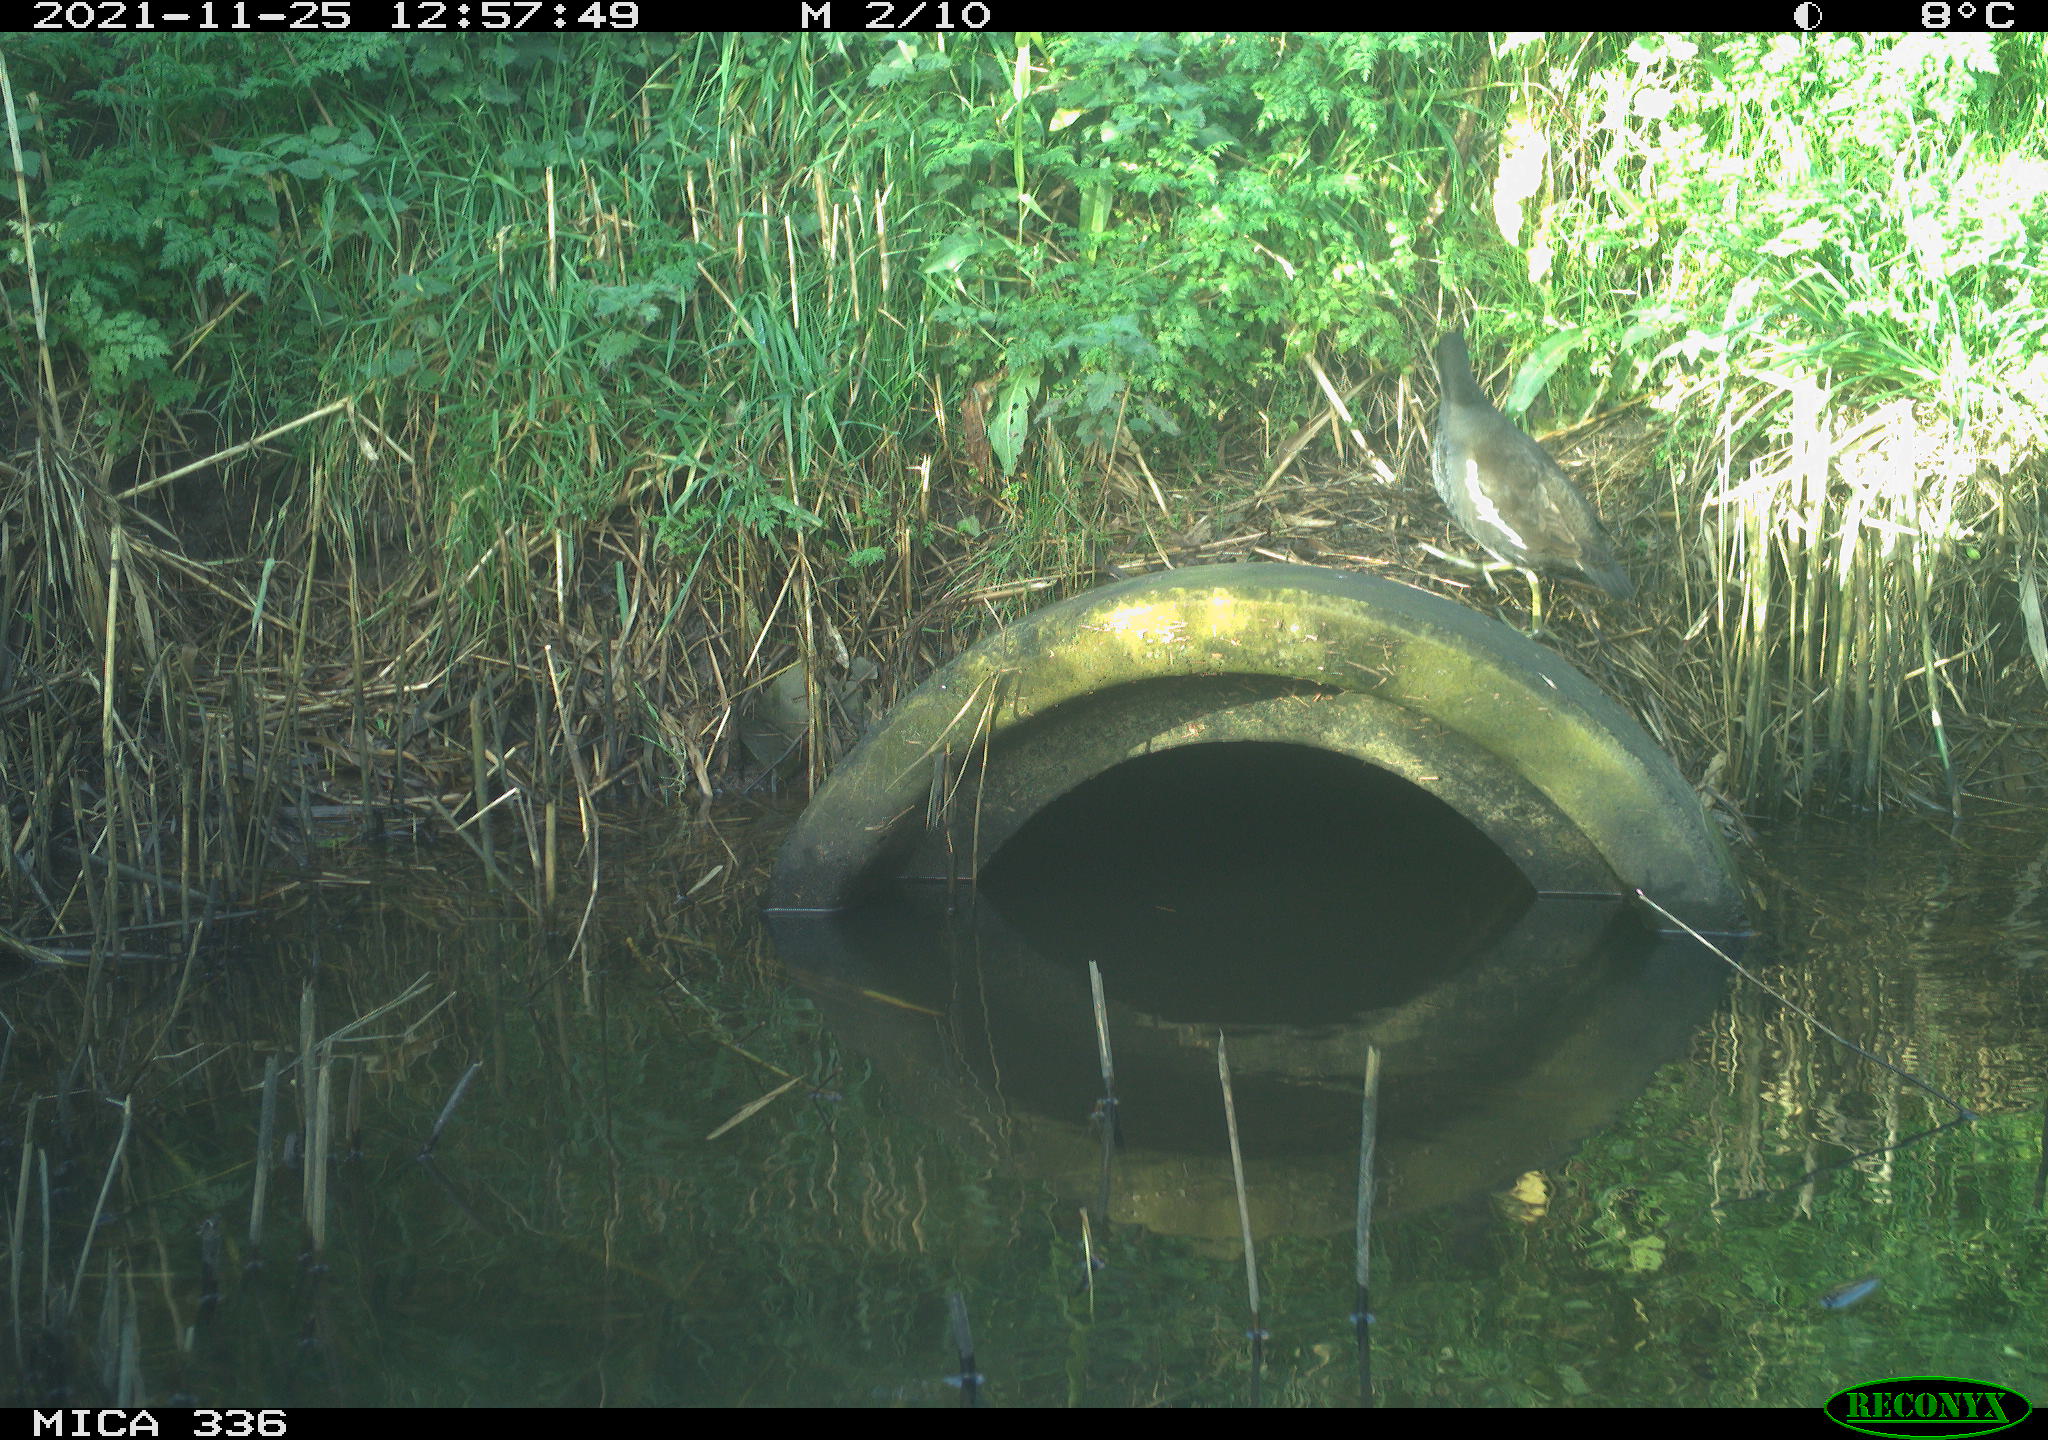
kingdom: Animalia
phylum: Chordata
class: Aves
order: Gruiformes
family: Rallidae
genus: Gallinula
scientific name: Gallinula chloropus
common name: Common moorhen
